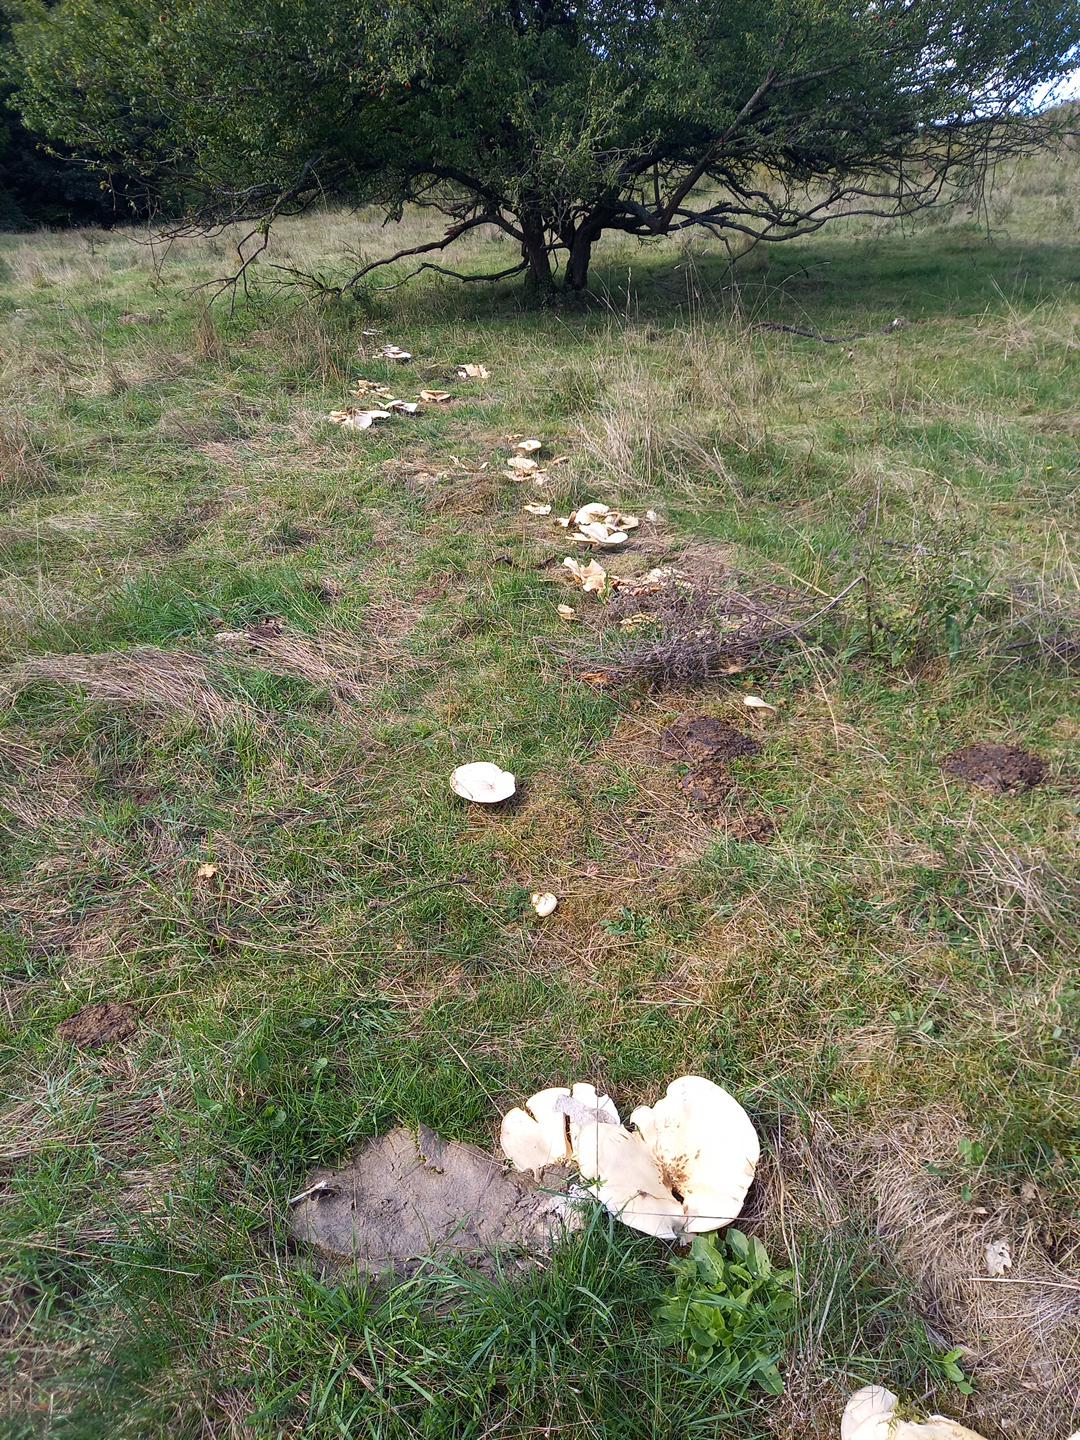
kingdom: Fungi
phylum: Basidiomycota
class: Agaricomycetes
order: Agaricales
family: Tricholomataceae
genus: Aspropaxillus
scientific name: Aspropaxillus giganteus
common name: kæmpe-tragtridderhat
